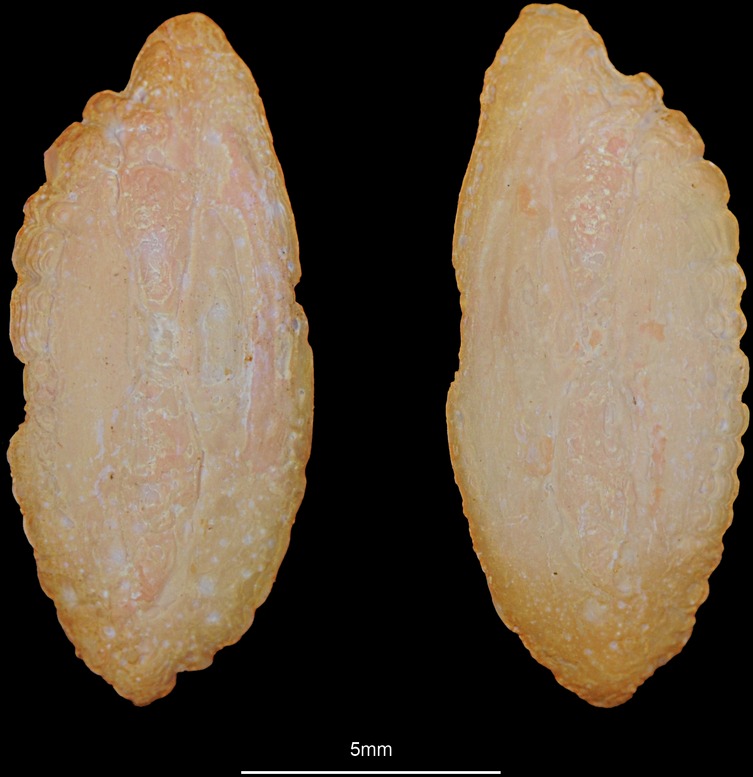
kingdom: Animalia
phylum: Chordata
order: Gadiformes
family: Lotidae
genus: Molva
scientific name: Molva dypterygia
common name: Blue ling
